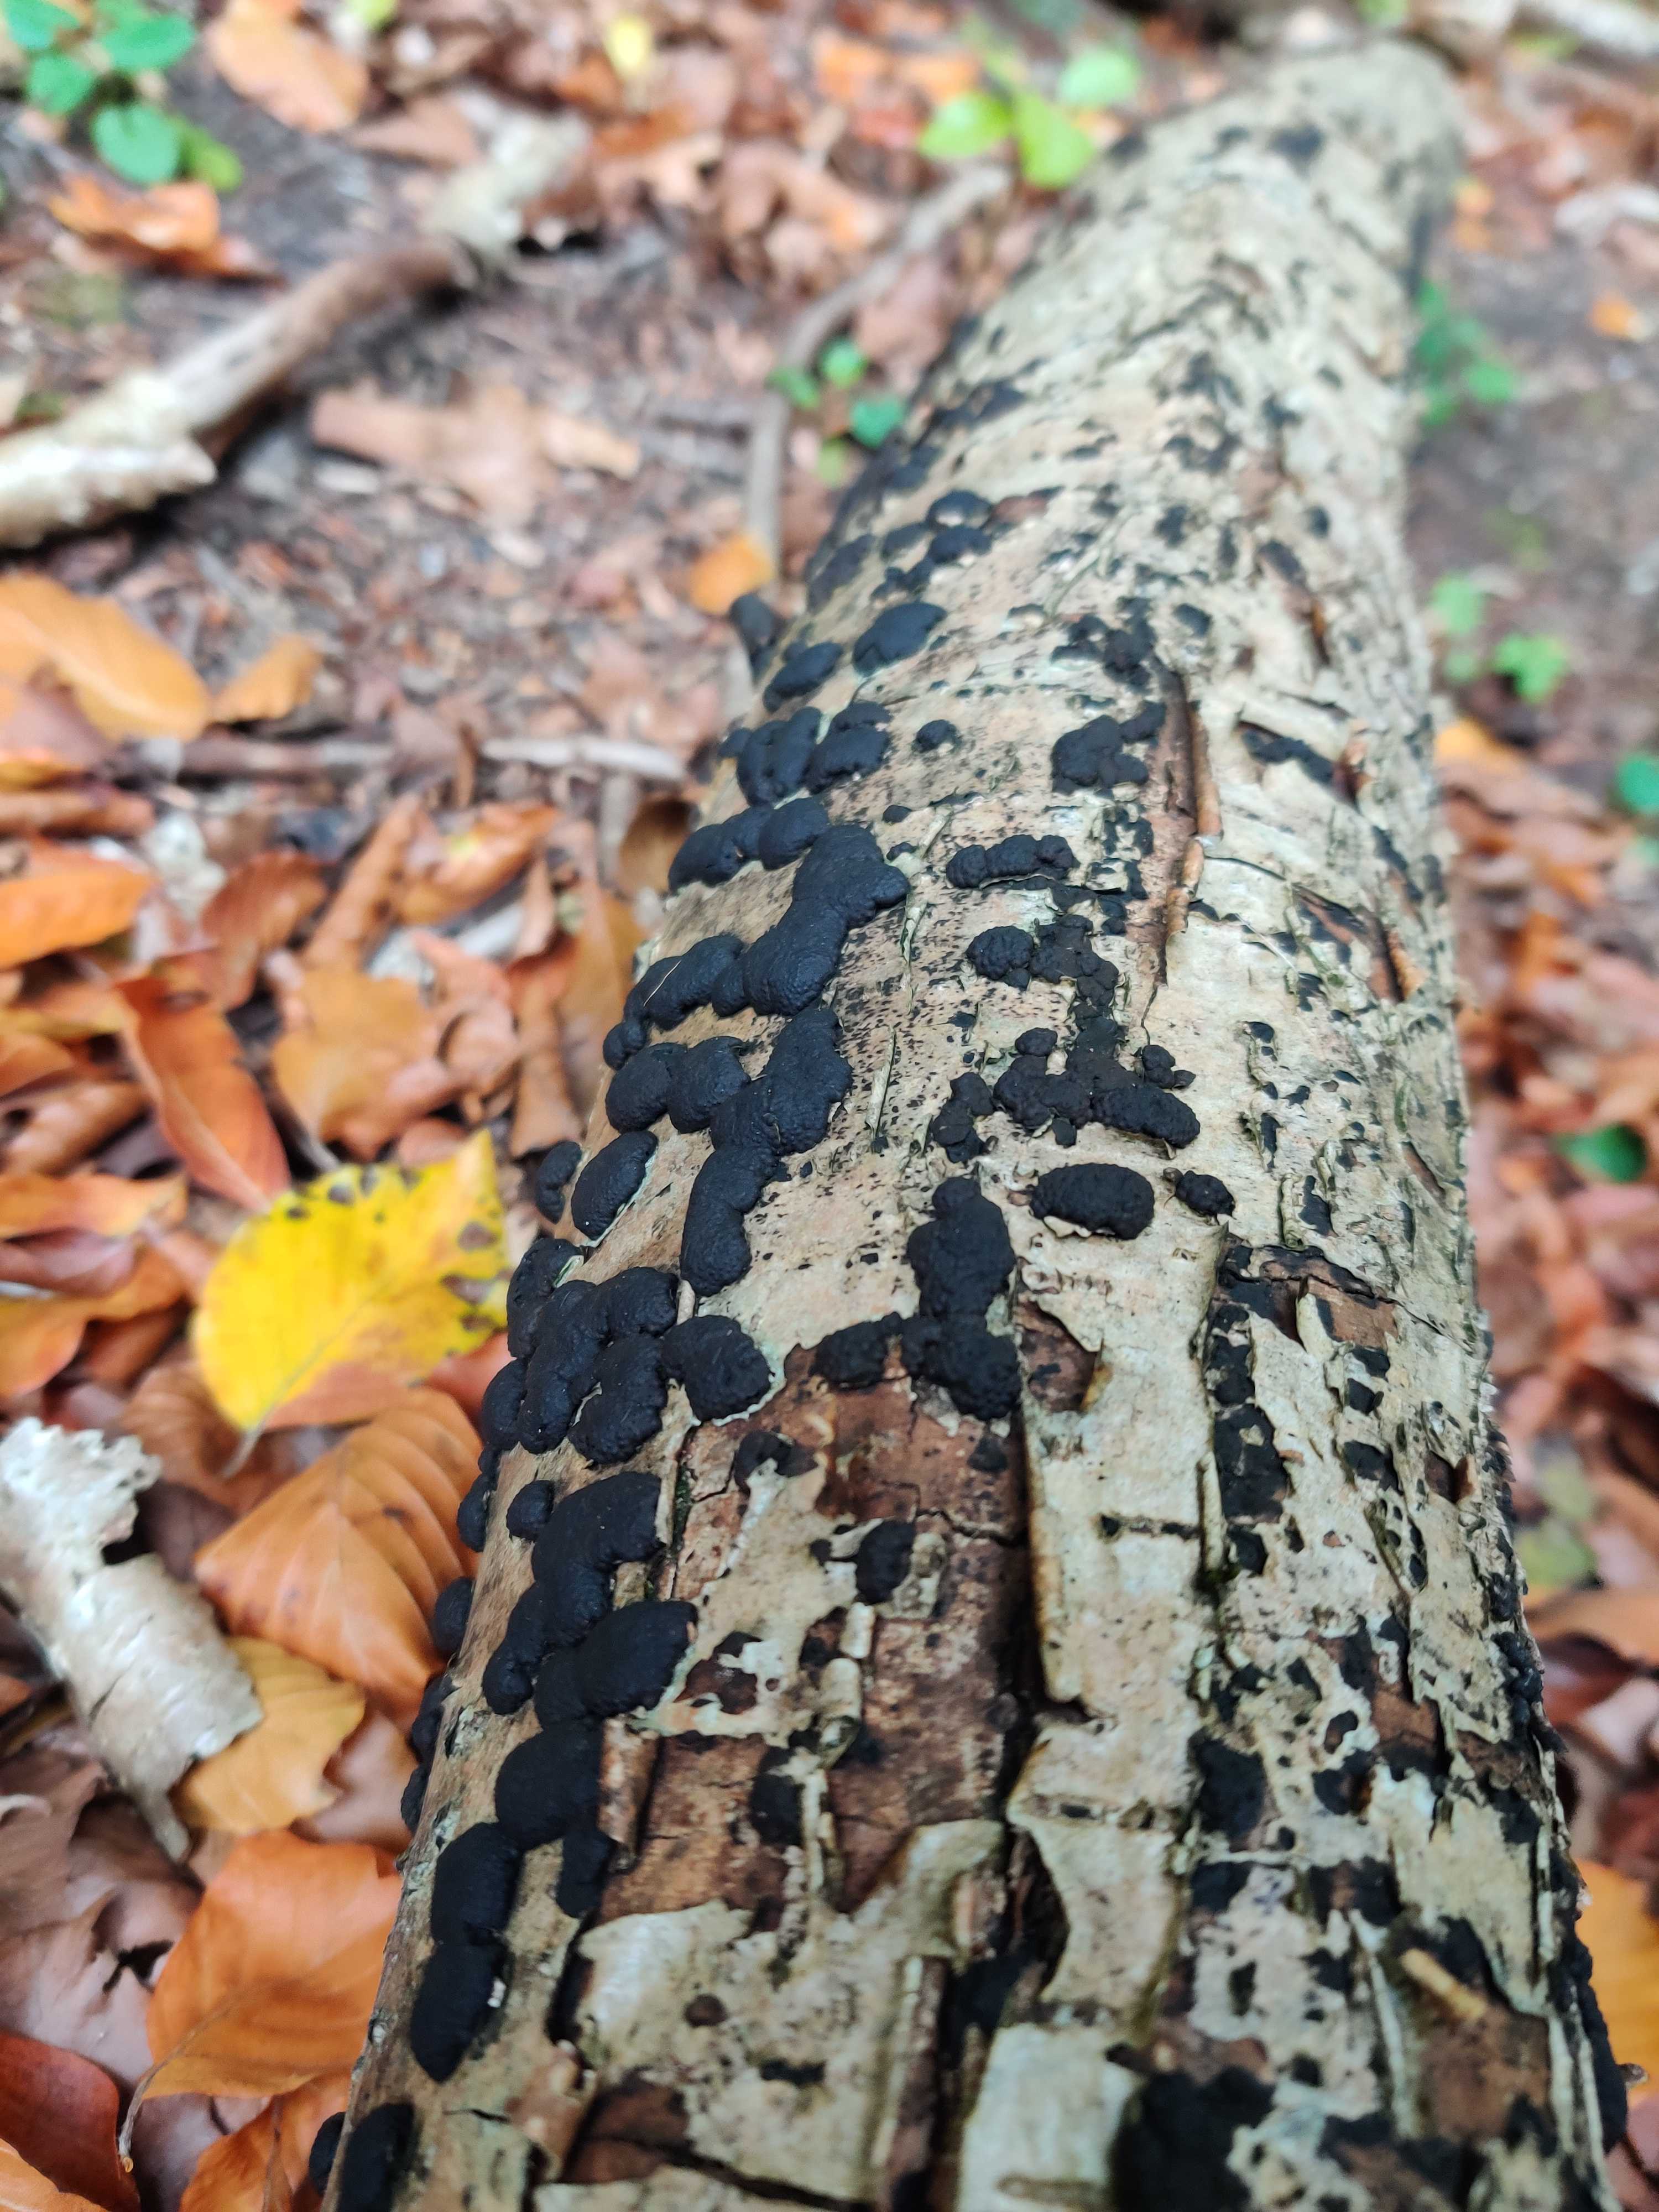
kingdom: Fungi
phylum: Ascomycota
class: Sordariomycetes
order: Xylariales
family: Hypoxylaceae
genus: Jackrogersella
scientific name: Jackrogersella multiformis
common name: foranderlig kulbær
